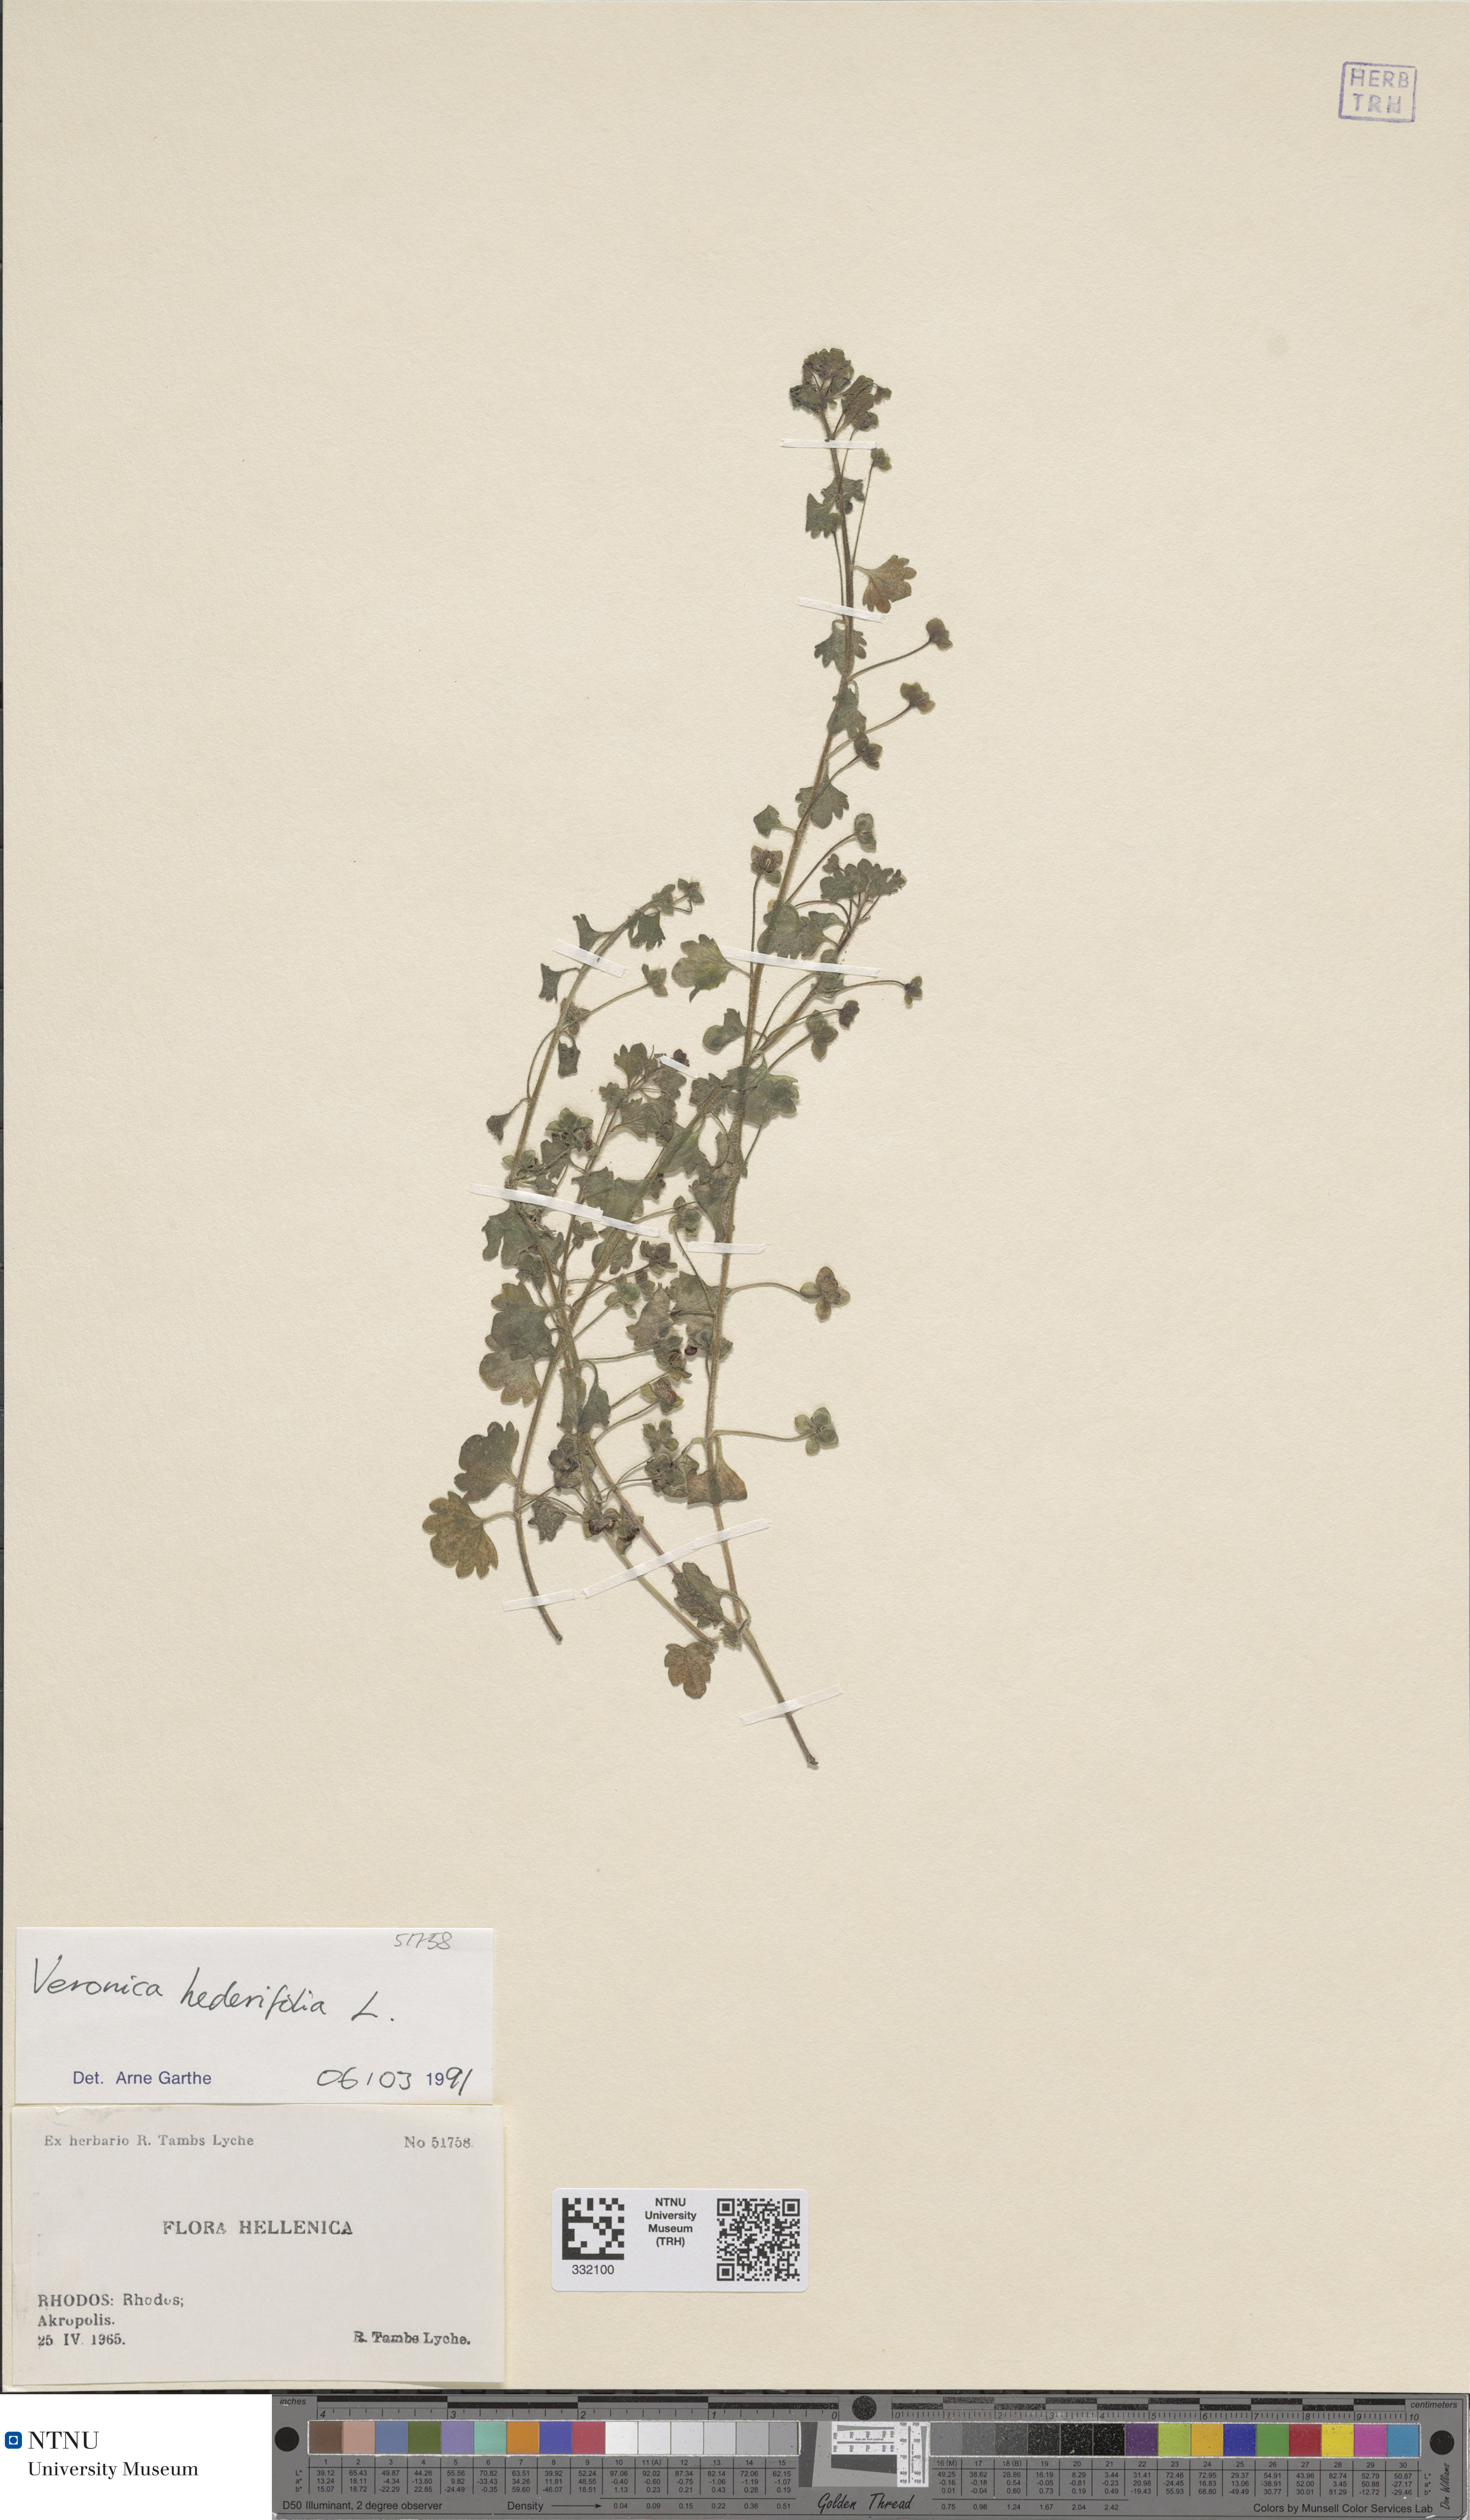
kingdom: Plantae
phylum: Tracheophyta
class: Magnoliopsida
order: Lamiales
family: Plantaginaceae
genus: Veronica
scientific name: Veronica hederifolia
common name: Ivy-leaved speedwell
